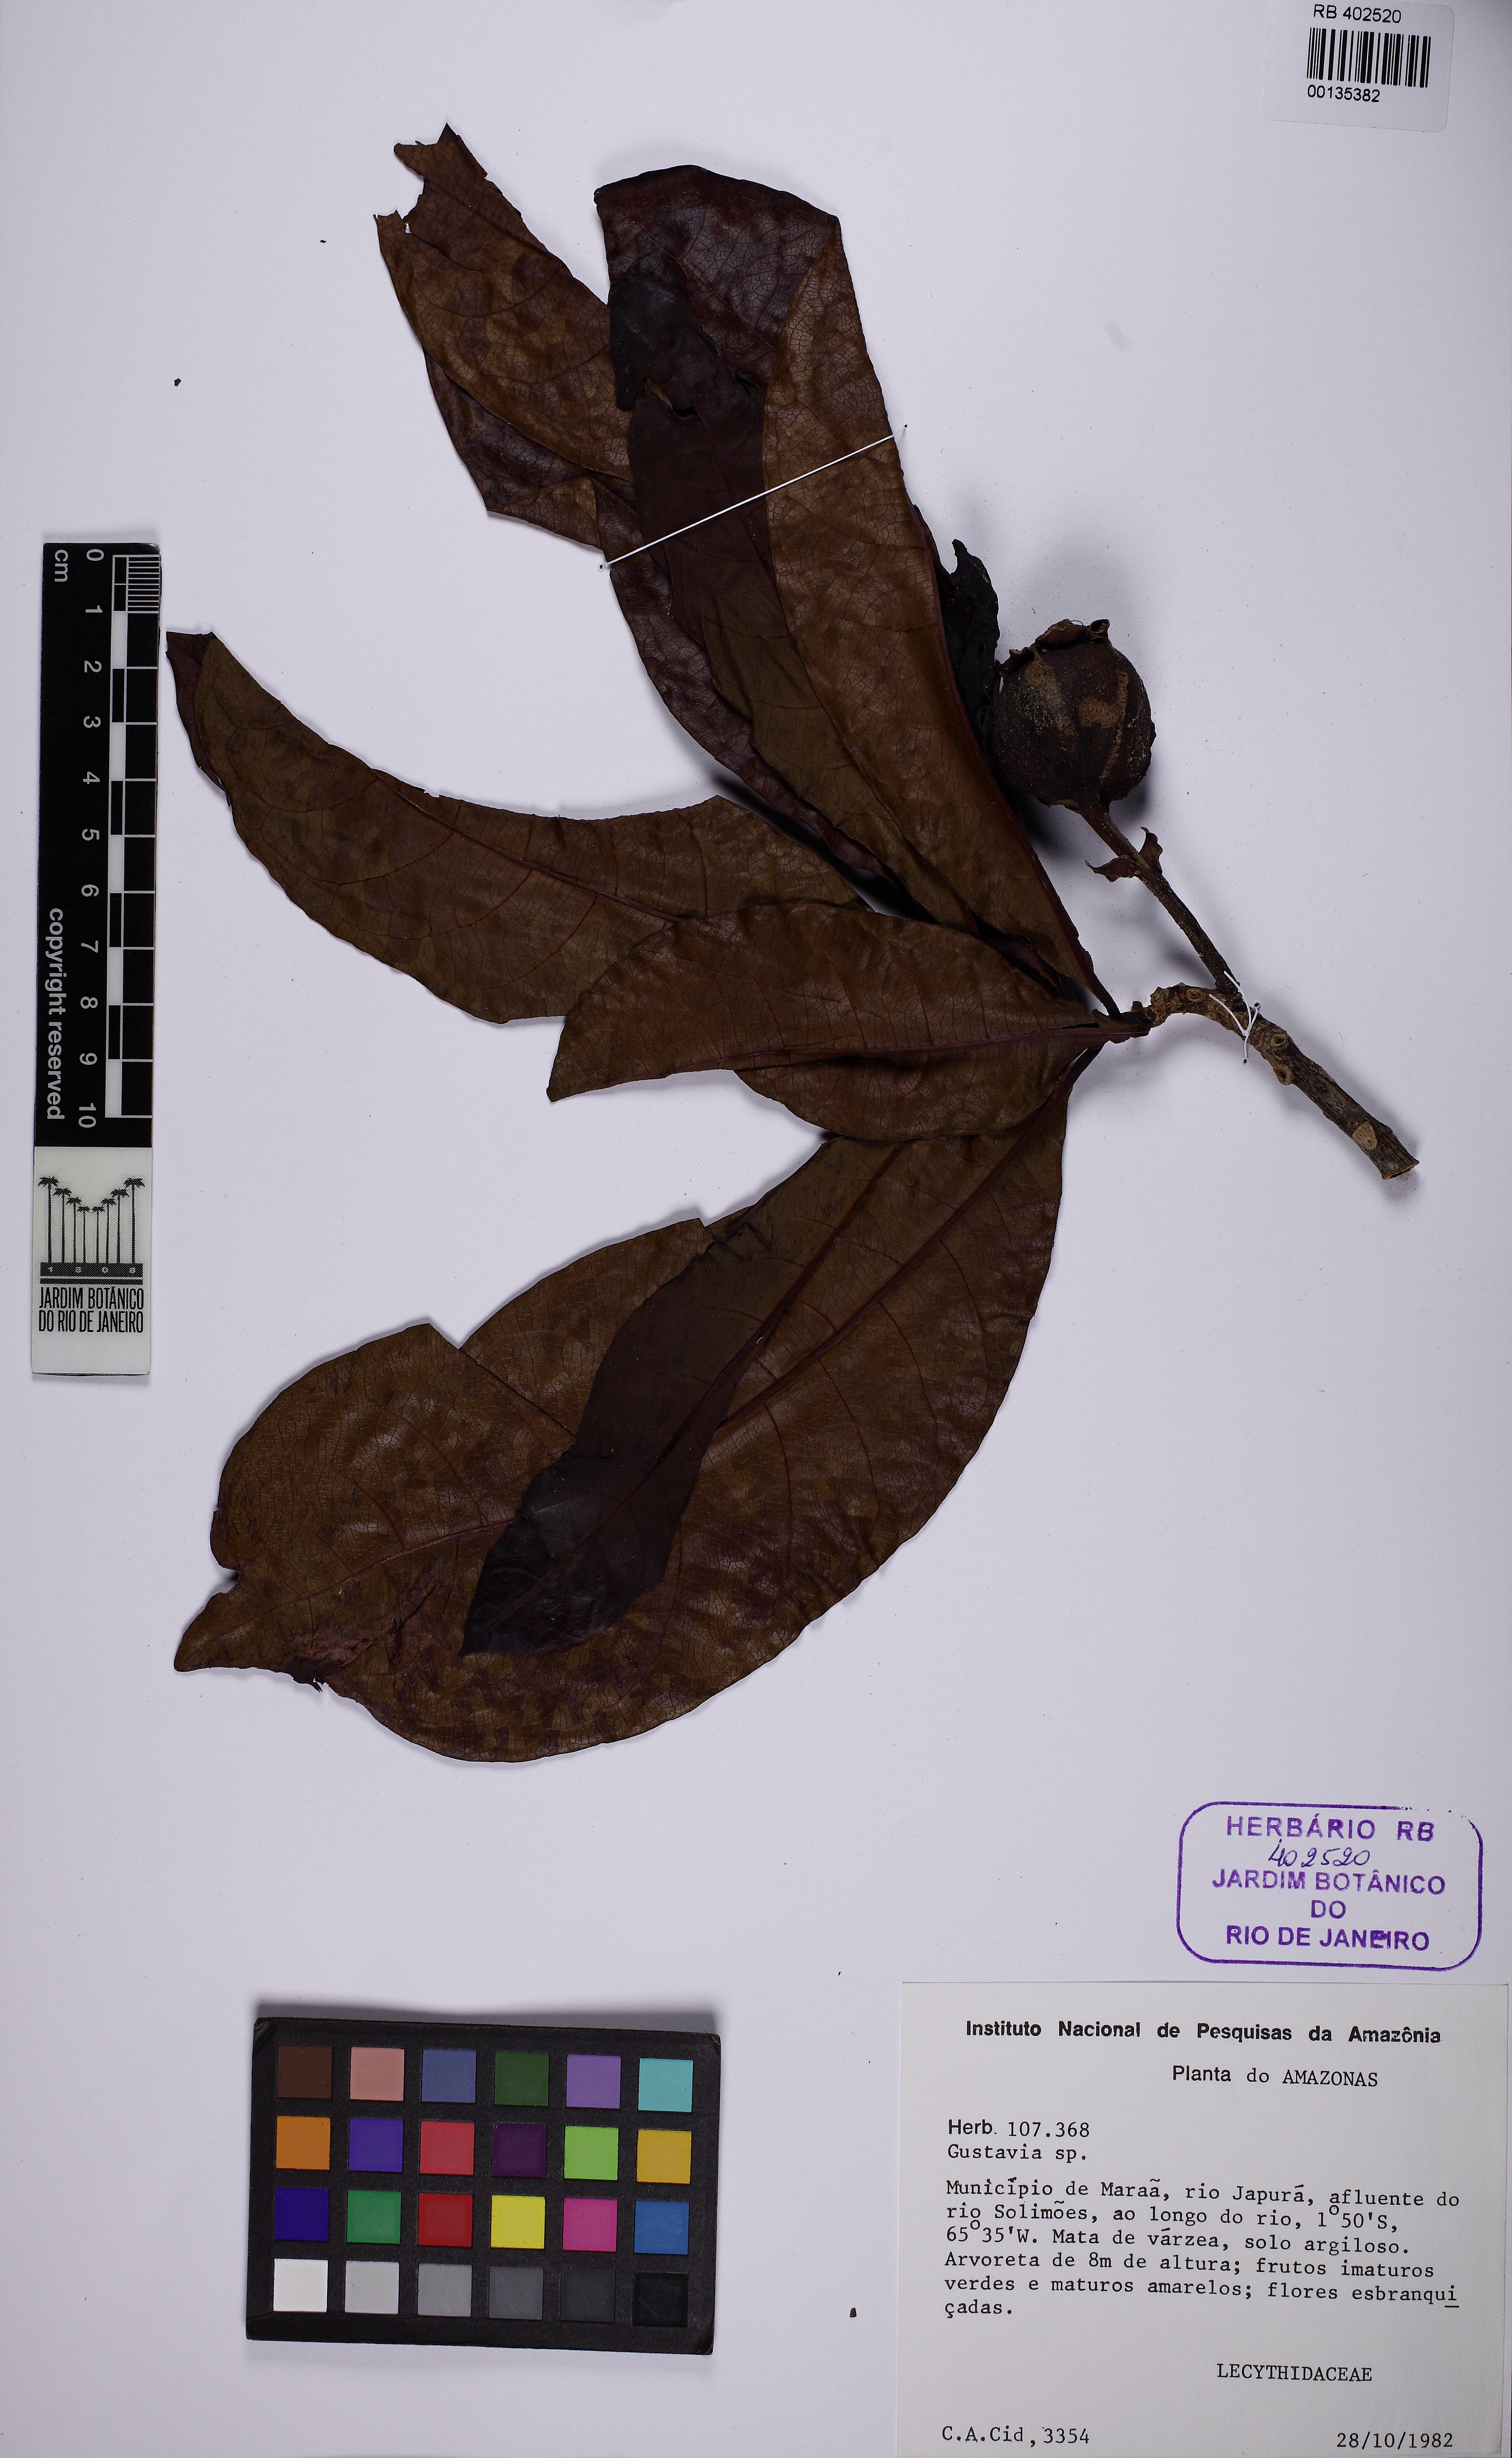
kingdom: Plantae
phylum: Tracheophyta
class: Magnoliopsida
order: Ericales
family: Lecythidaceae
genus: Gustavia
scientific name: Gustavia
